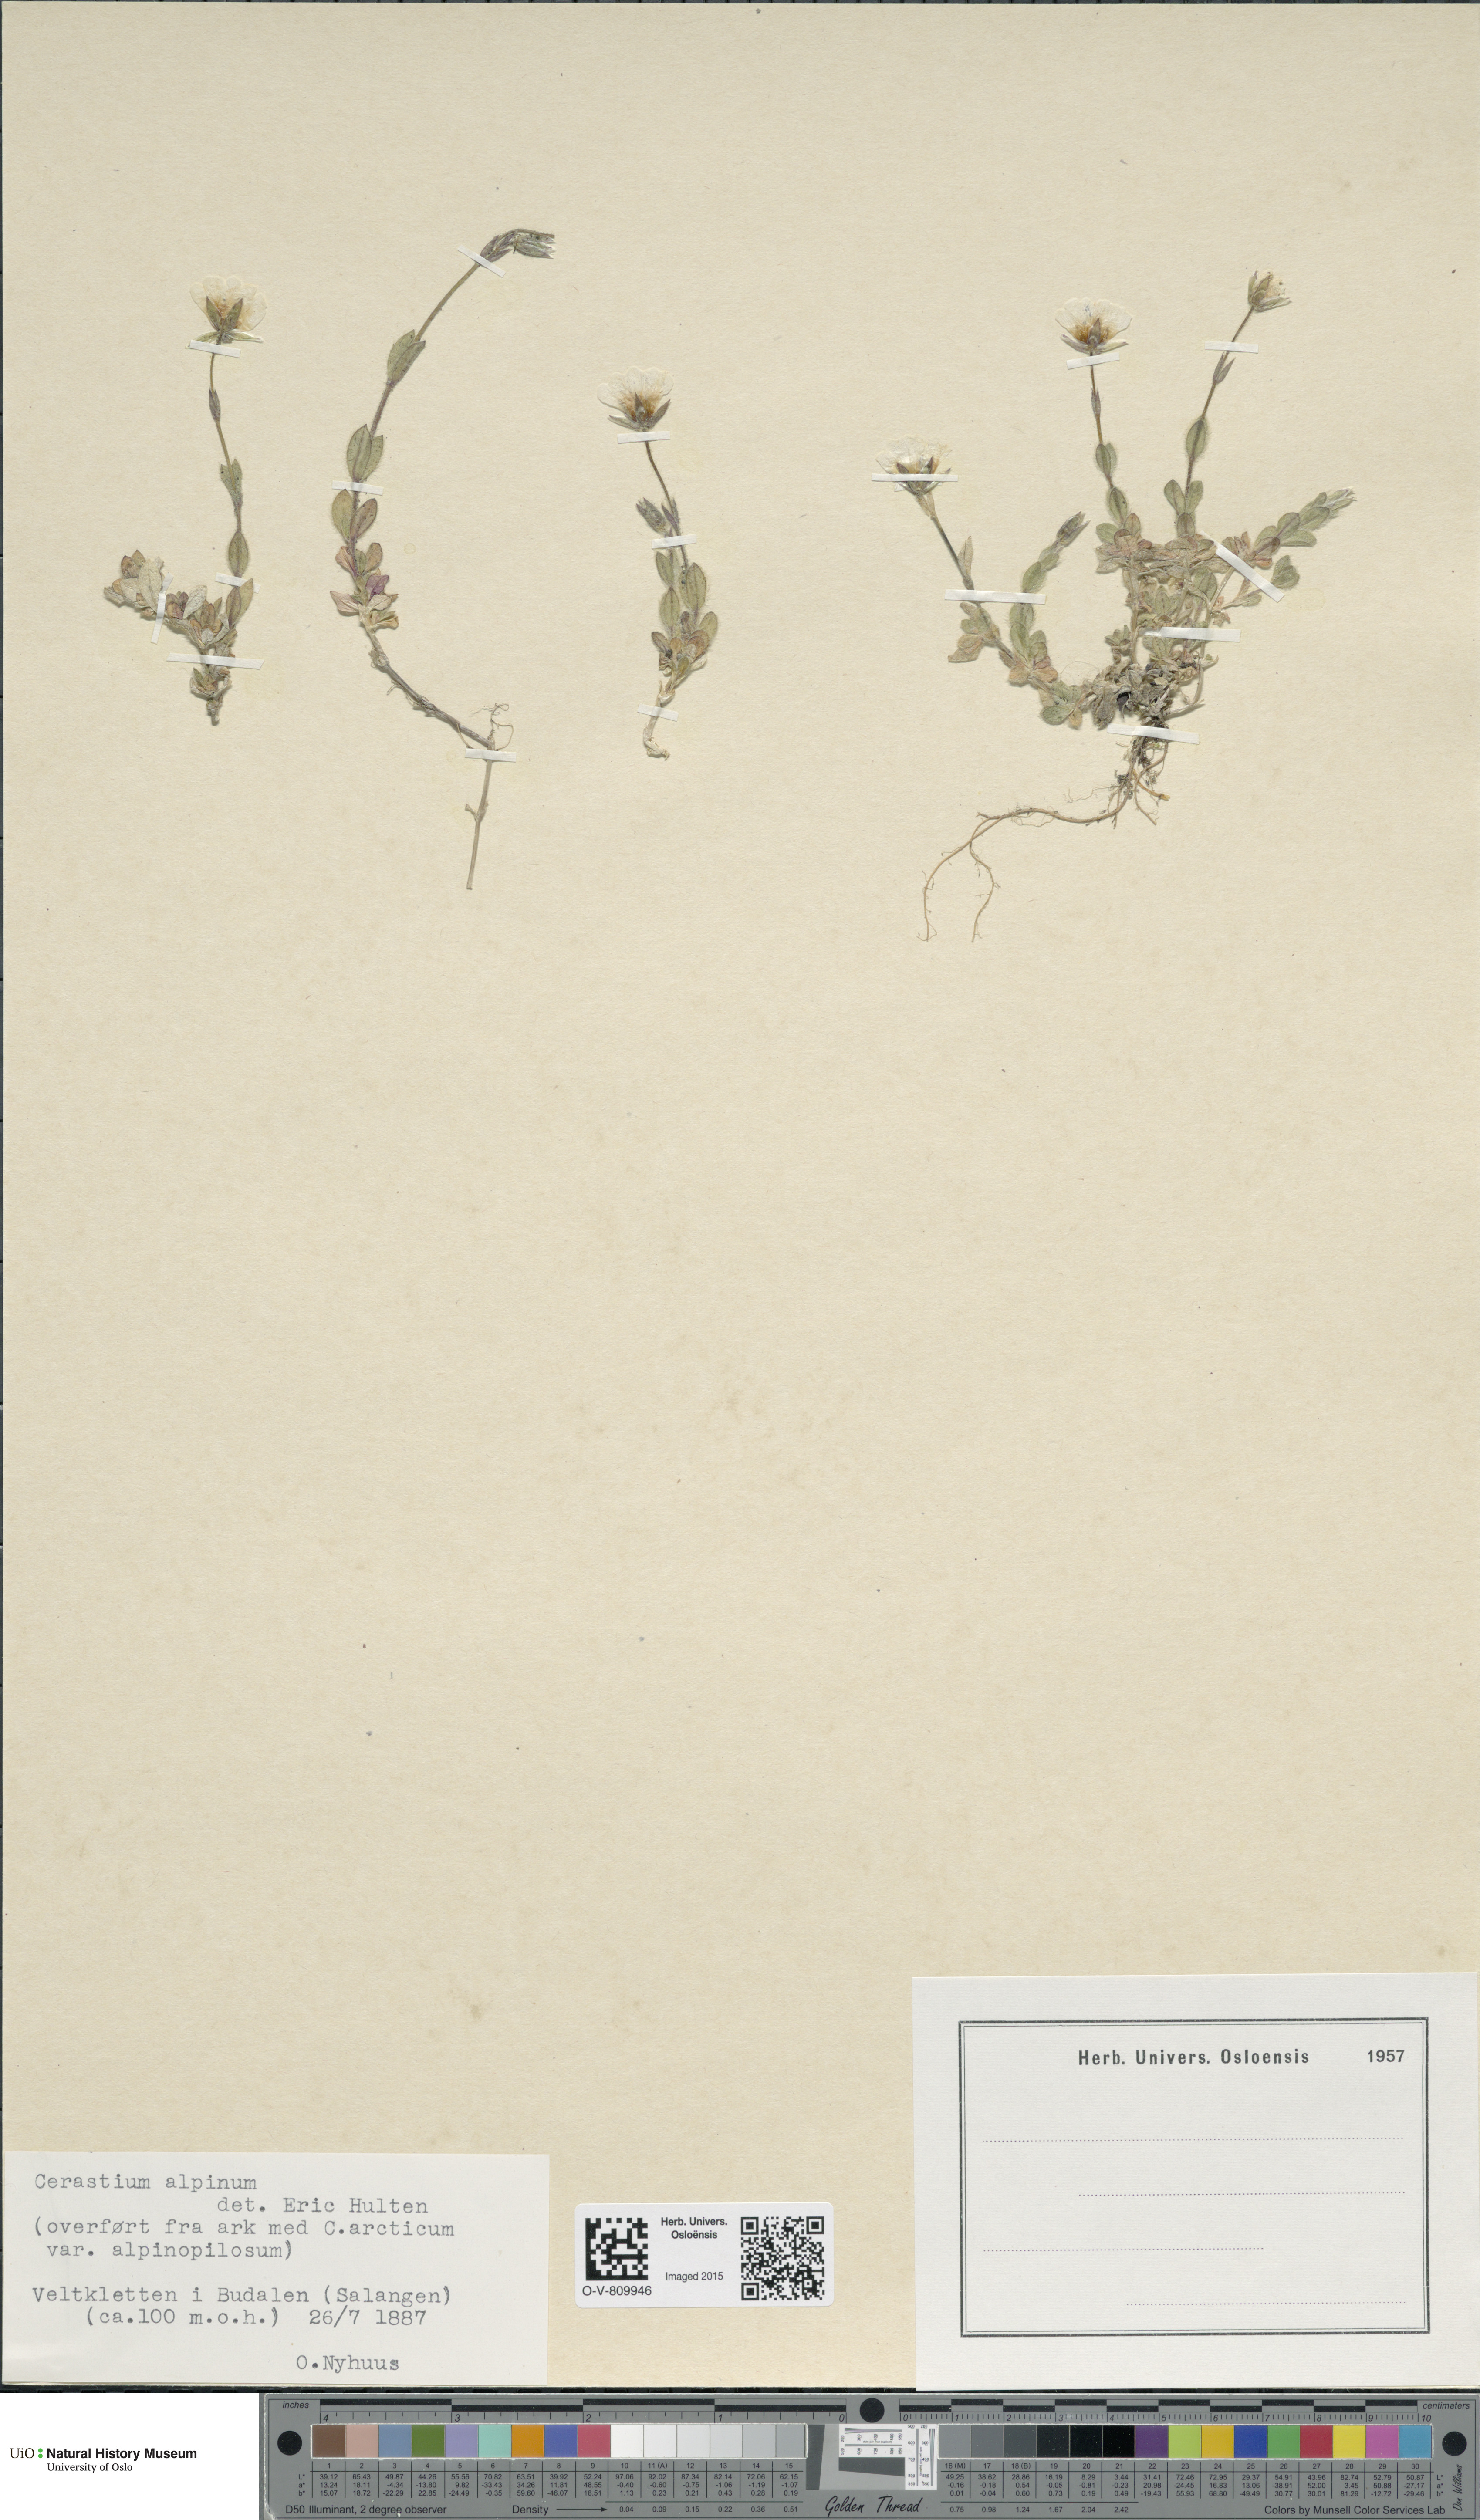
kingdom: Plantae
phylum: Tracheophyta
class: Magnoliopsida
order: Caryophyllales
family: Caryophyllaceae
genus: Cerastium
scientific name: Cerastium alpinum
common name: Alpine mouse-ear
